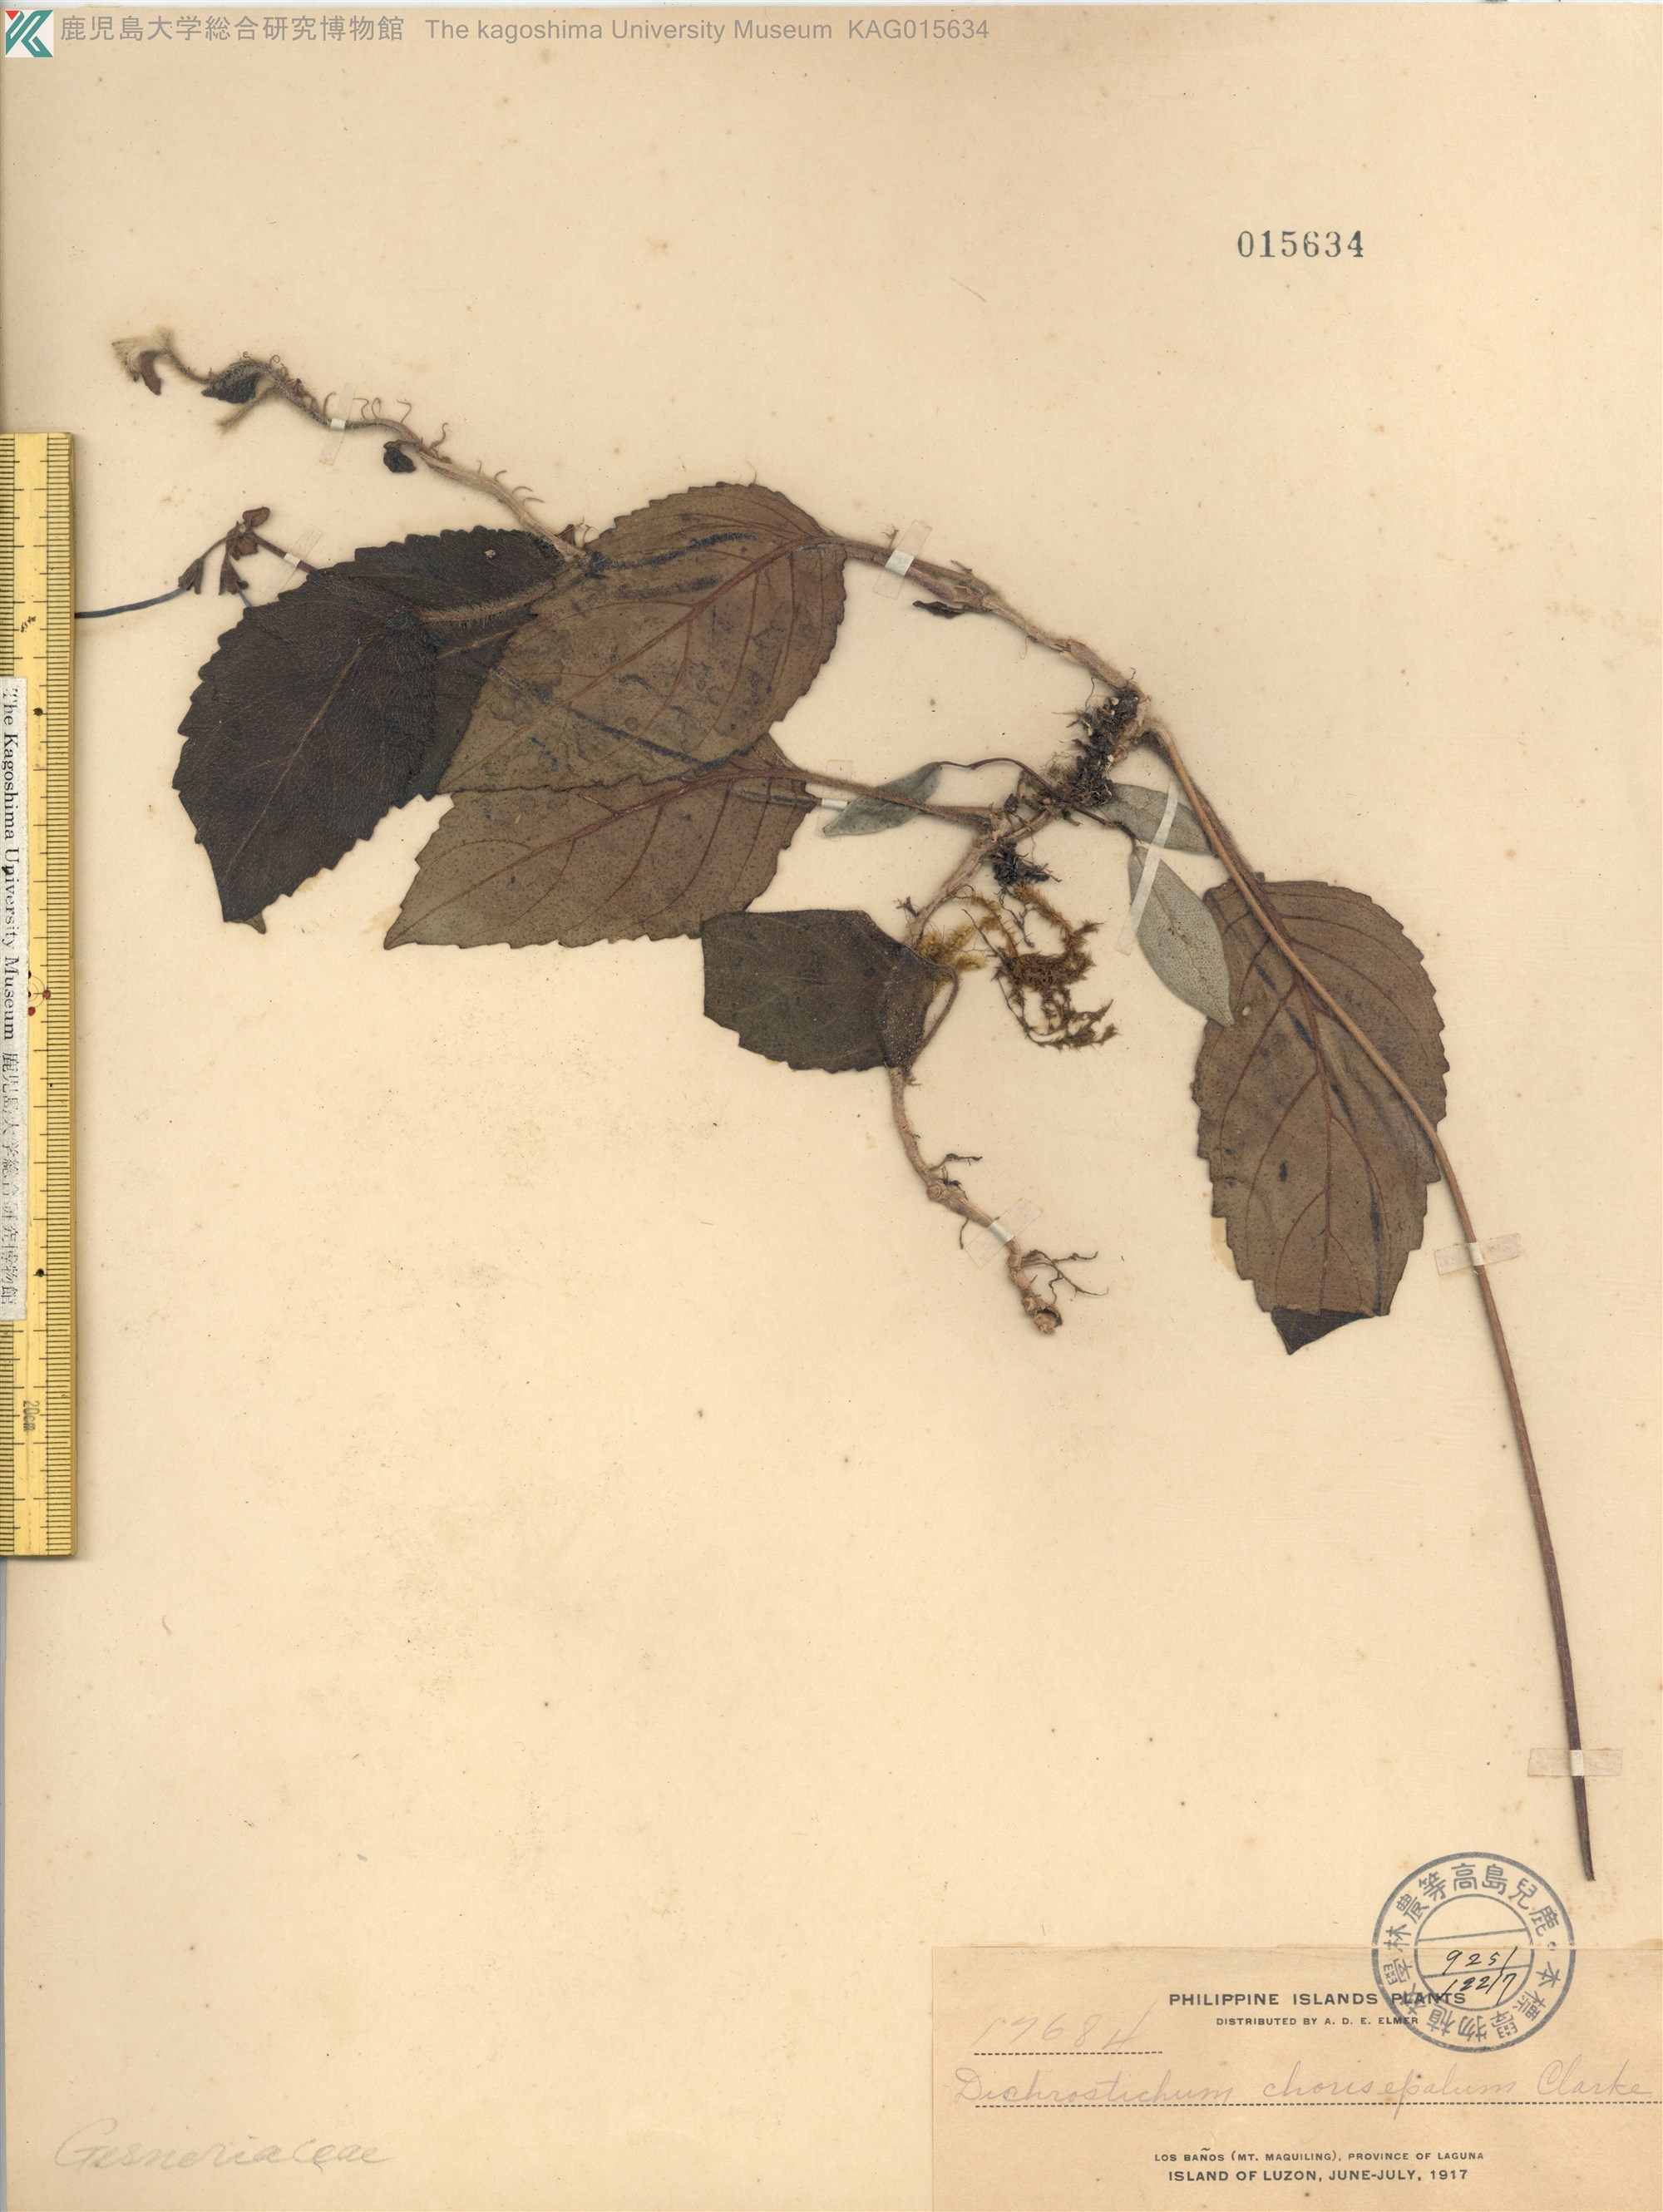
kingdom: Plantae
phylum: Tracheophyta
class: Magnoliopsida
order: Lamiales
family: Gesneriaceae
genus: Agalmyla
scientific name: Agalmyla chorisepala
